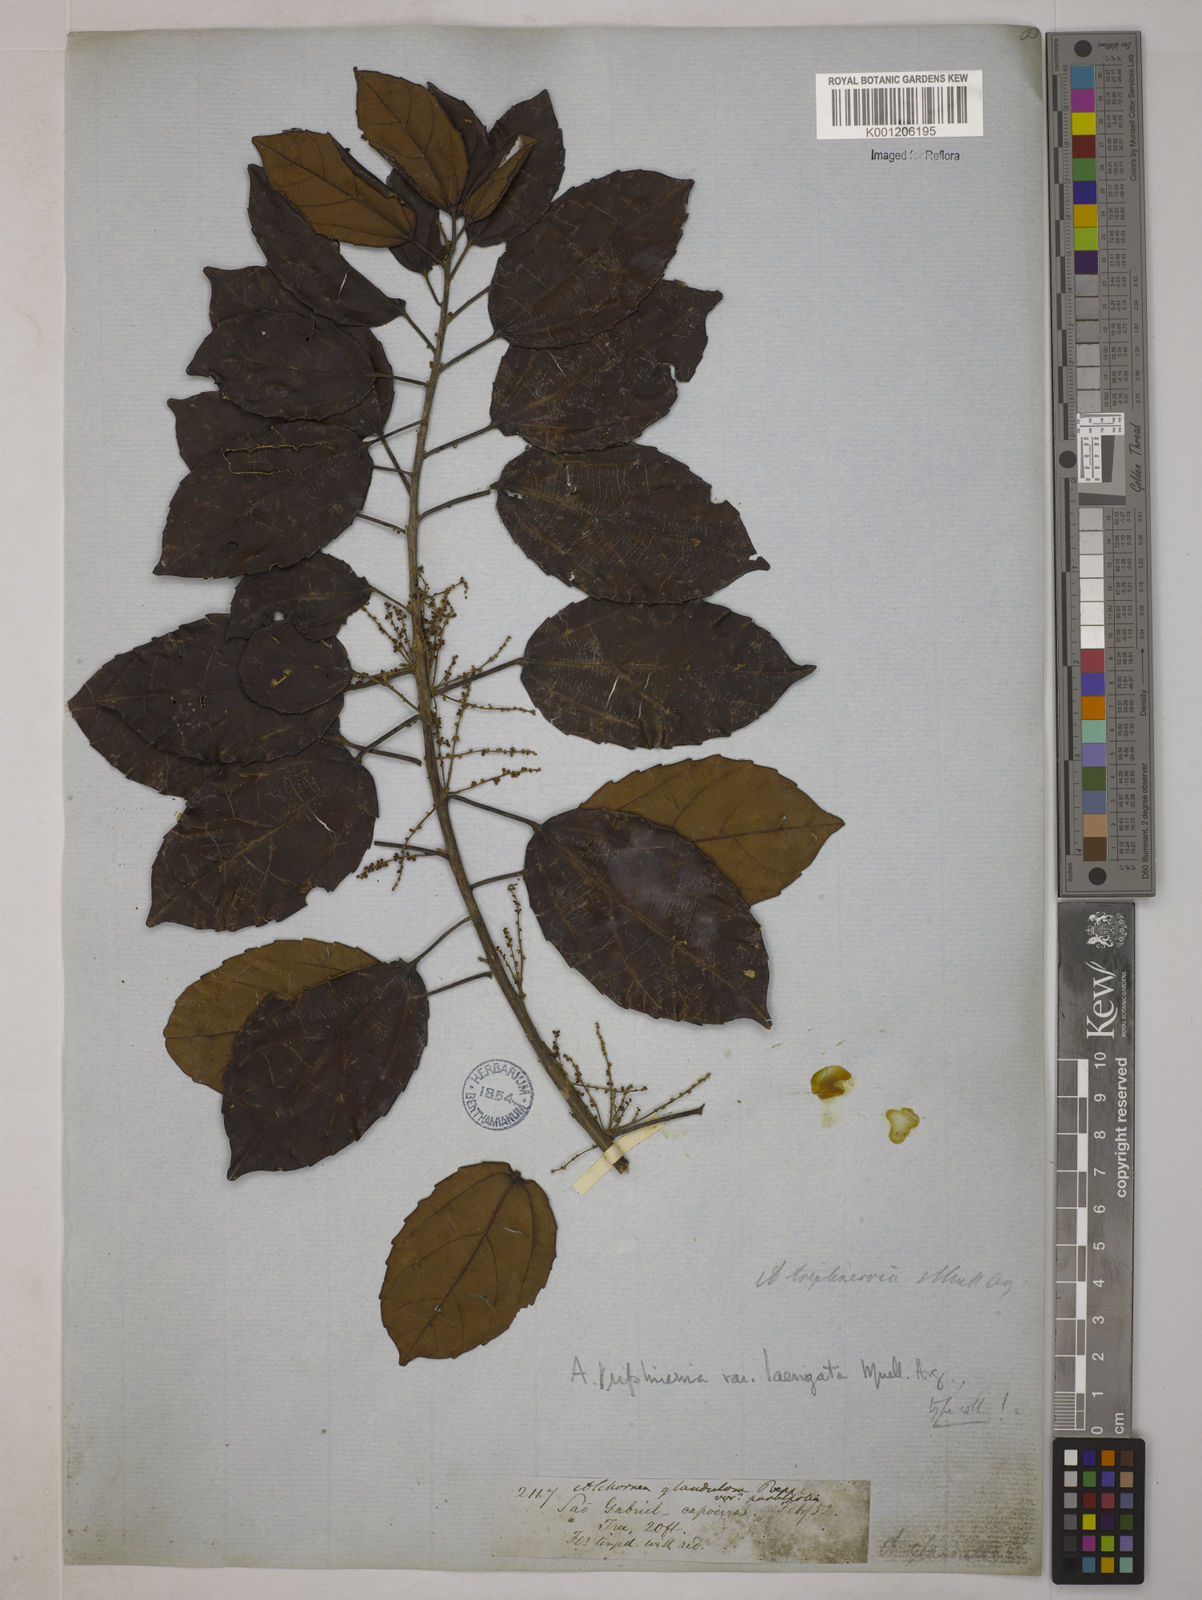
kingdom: Plantae
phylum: Tracheophyta
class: Magnoliopsida
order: Malpighiales
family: Euphorbiaceae
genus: Alchornea
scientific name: Alchornea
